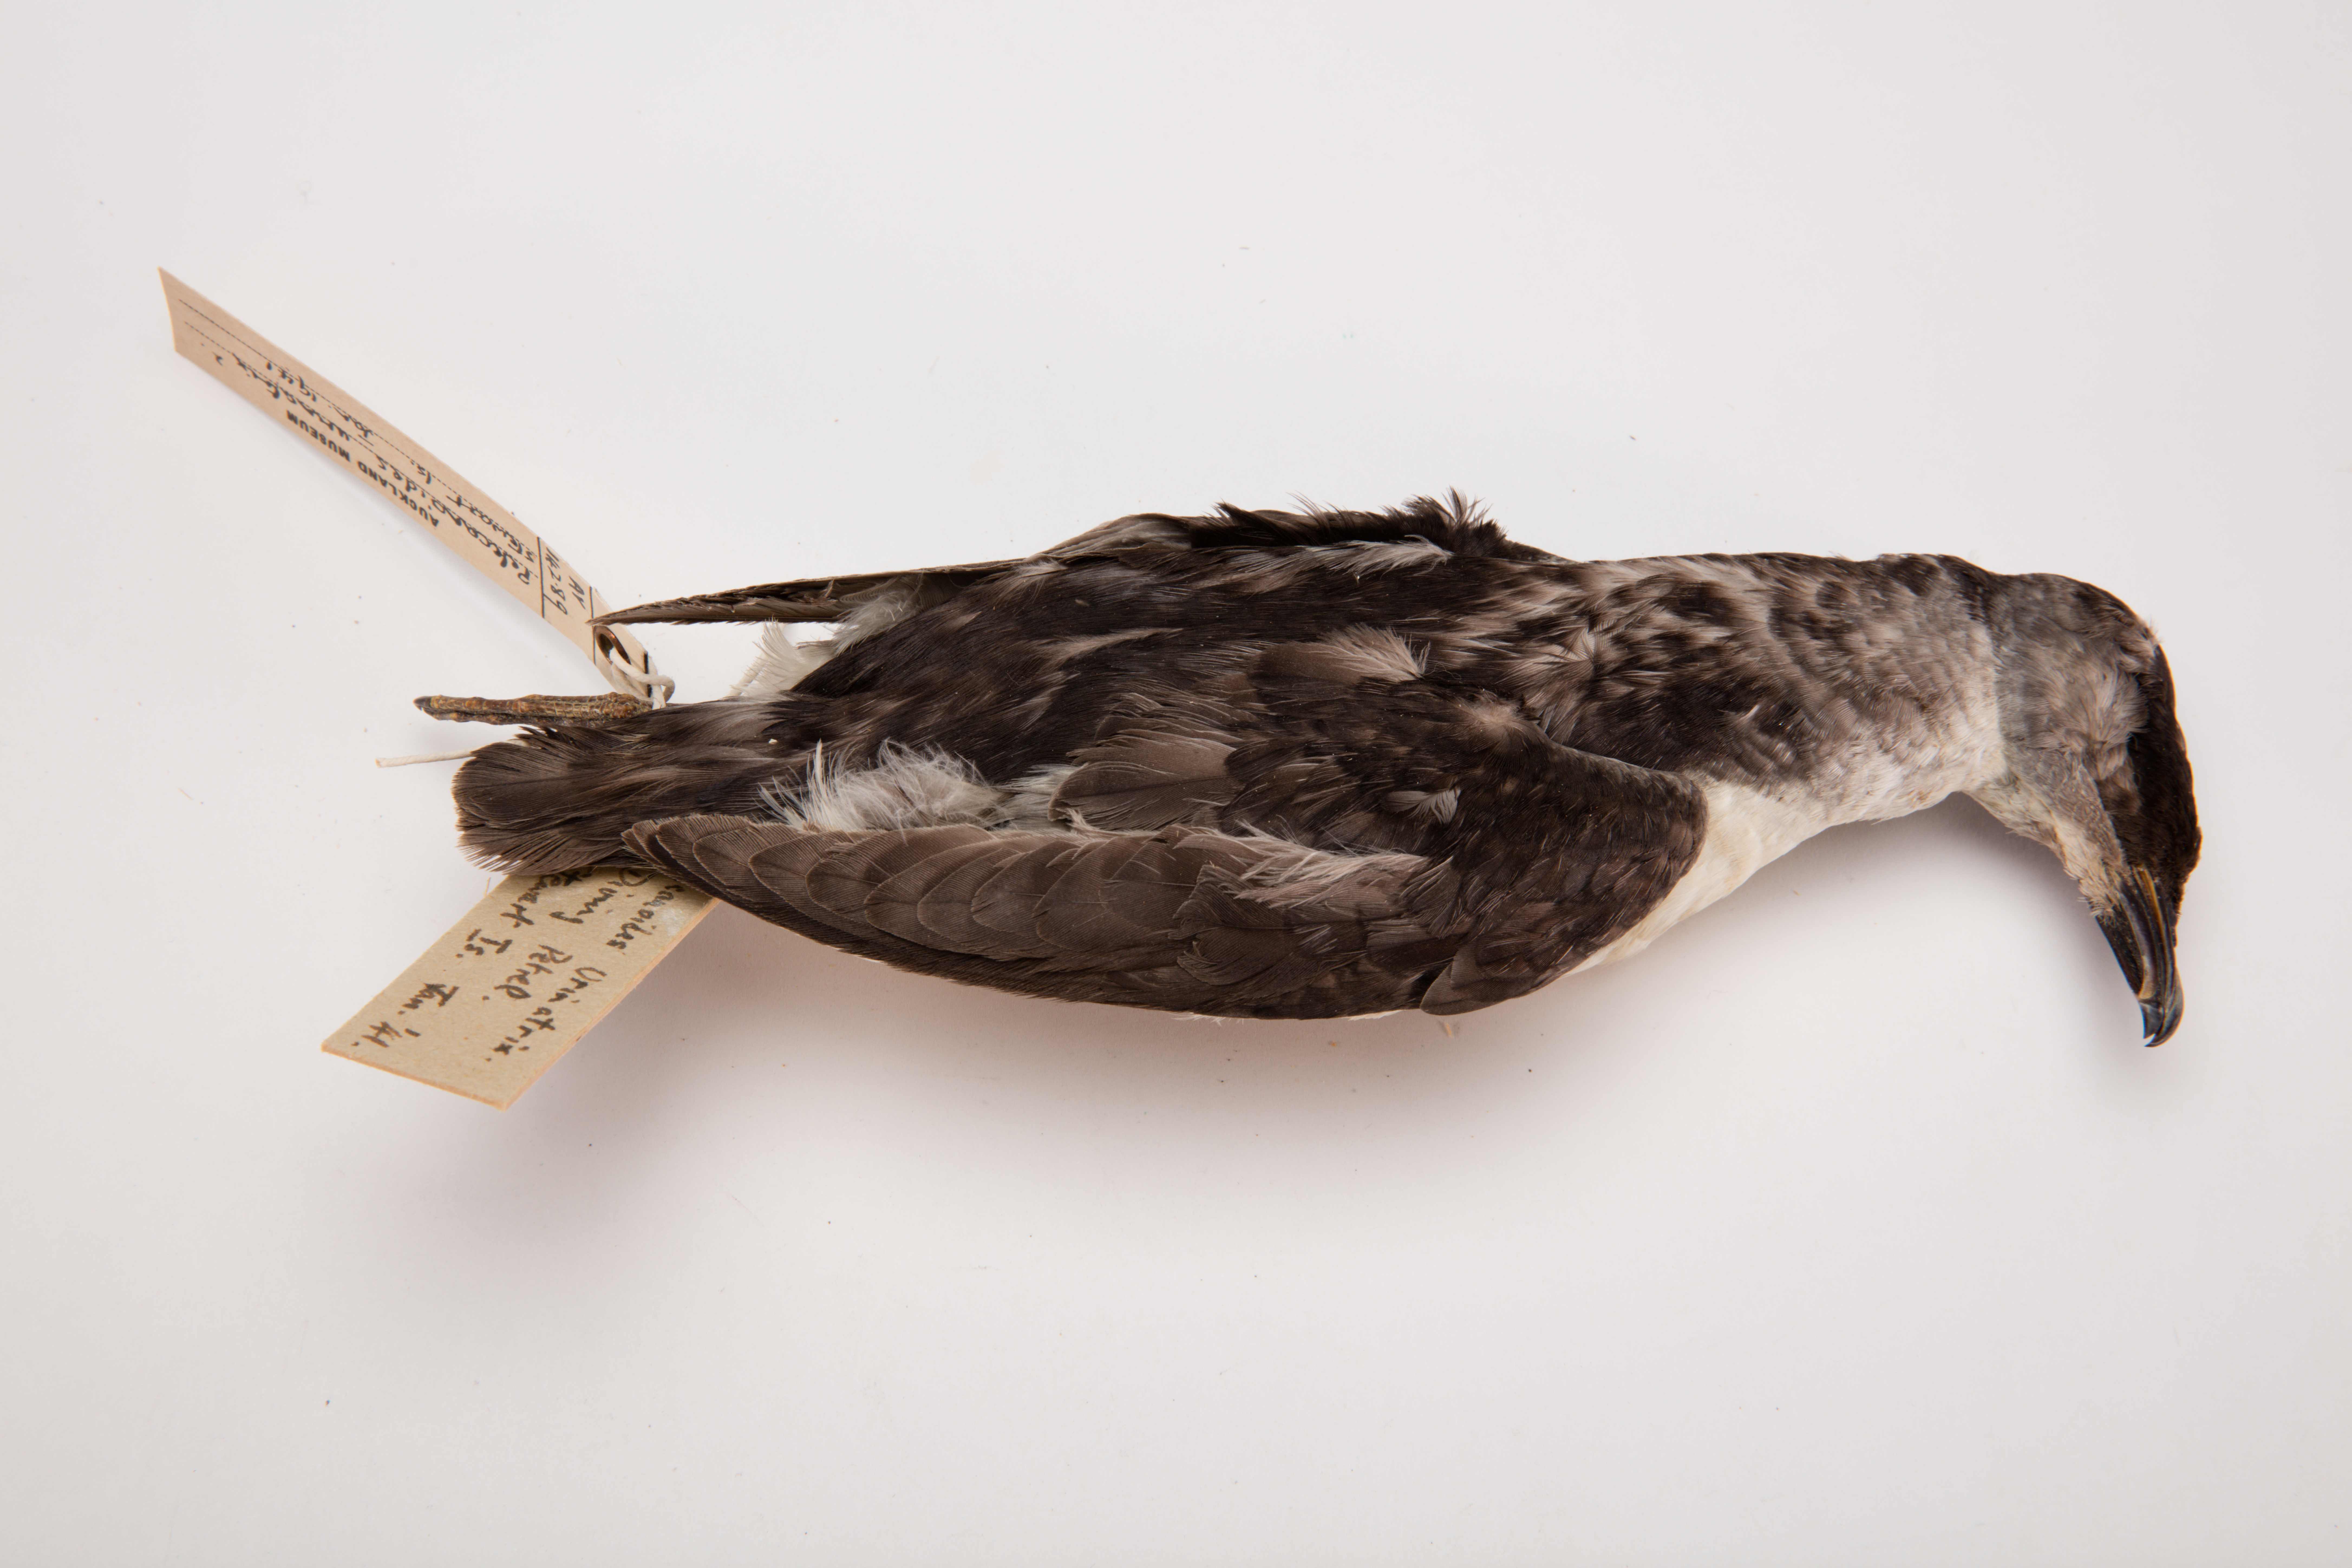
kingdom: Animalia
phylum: Chordata
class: Aves
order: Procellariiformes
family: Pelecanoididae
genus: Pelecanoides
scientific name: Pelecanoides urinatrix
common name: Common diving-petrel
